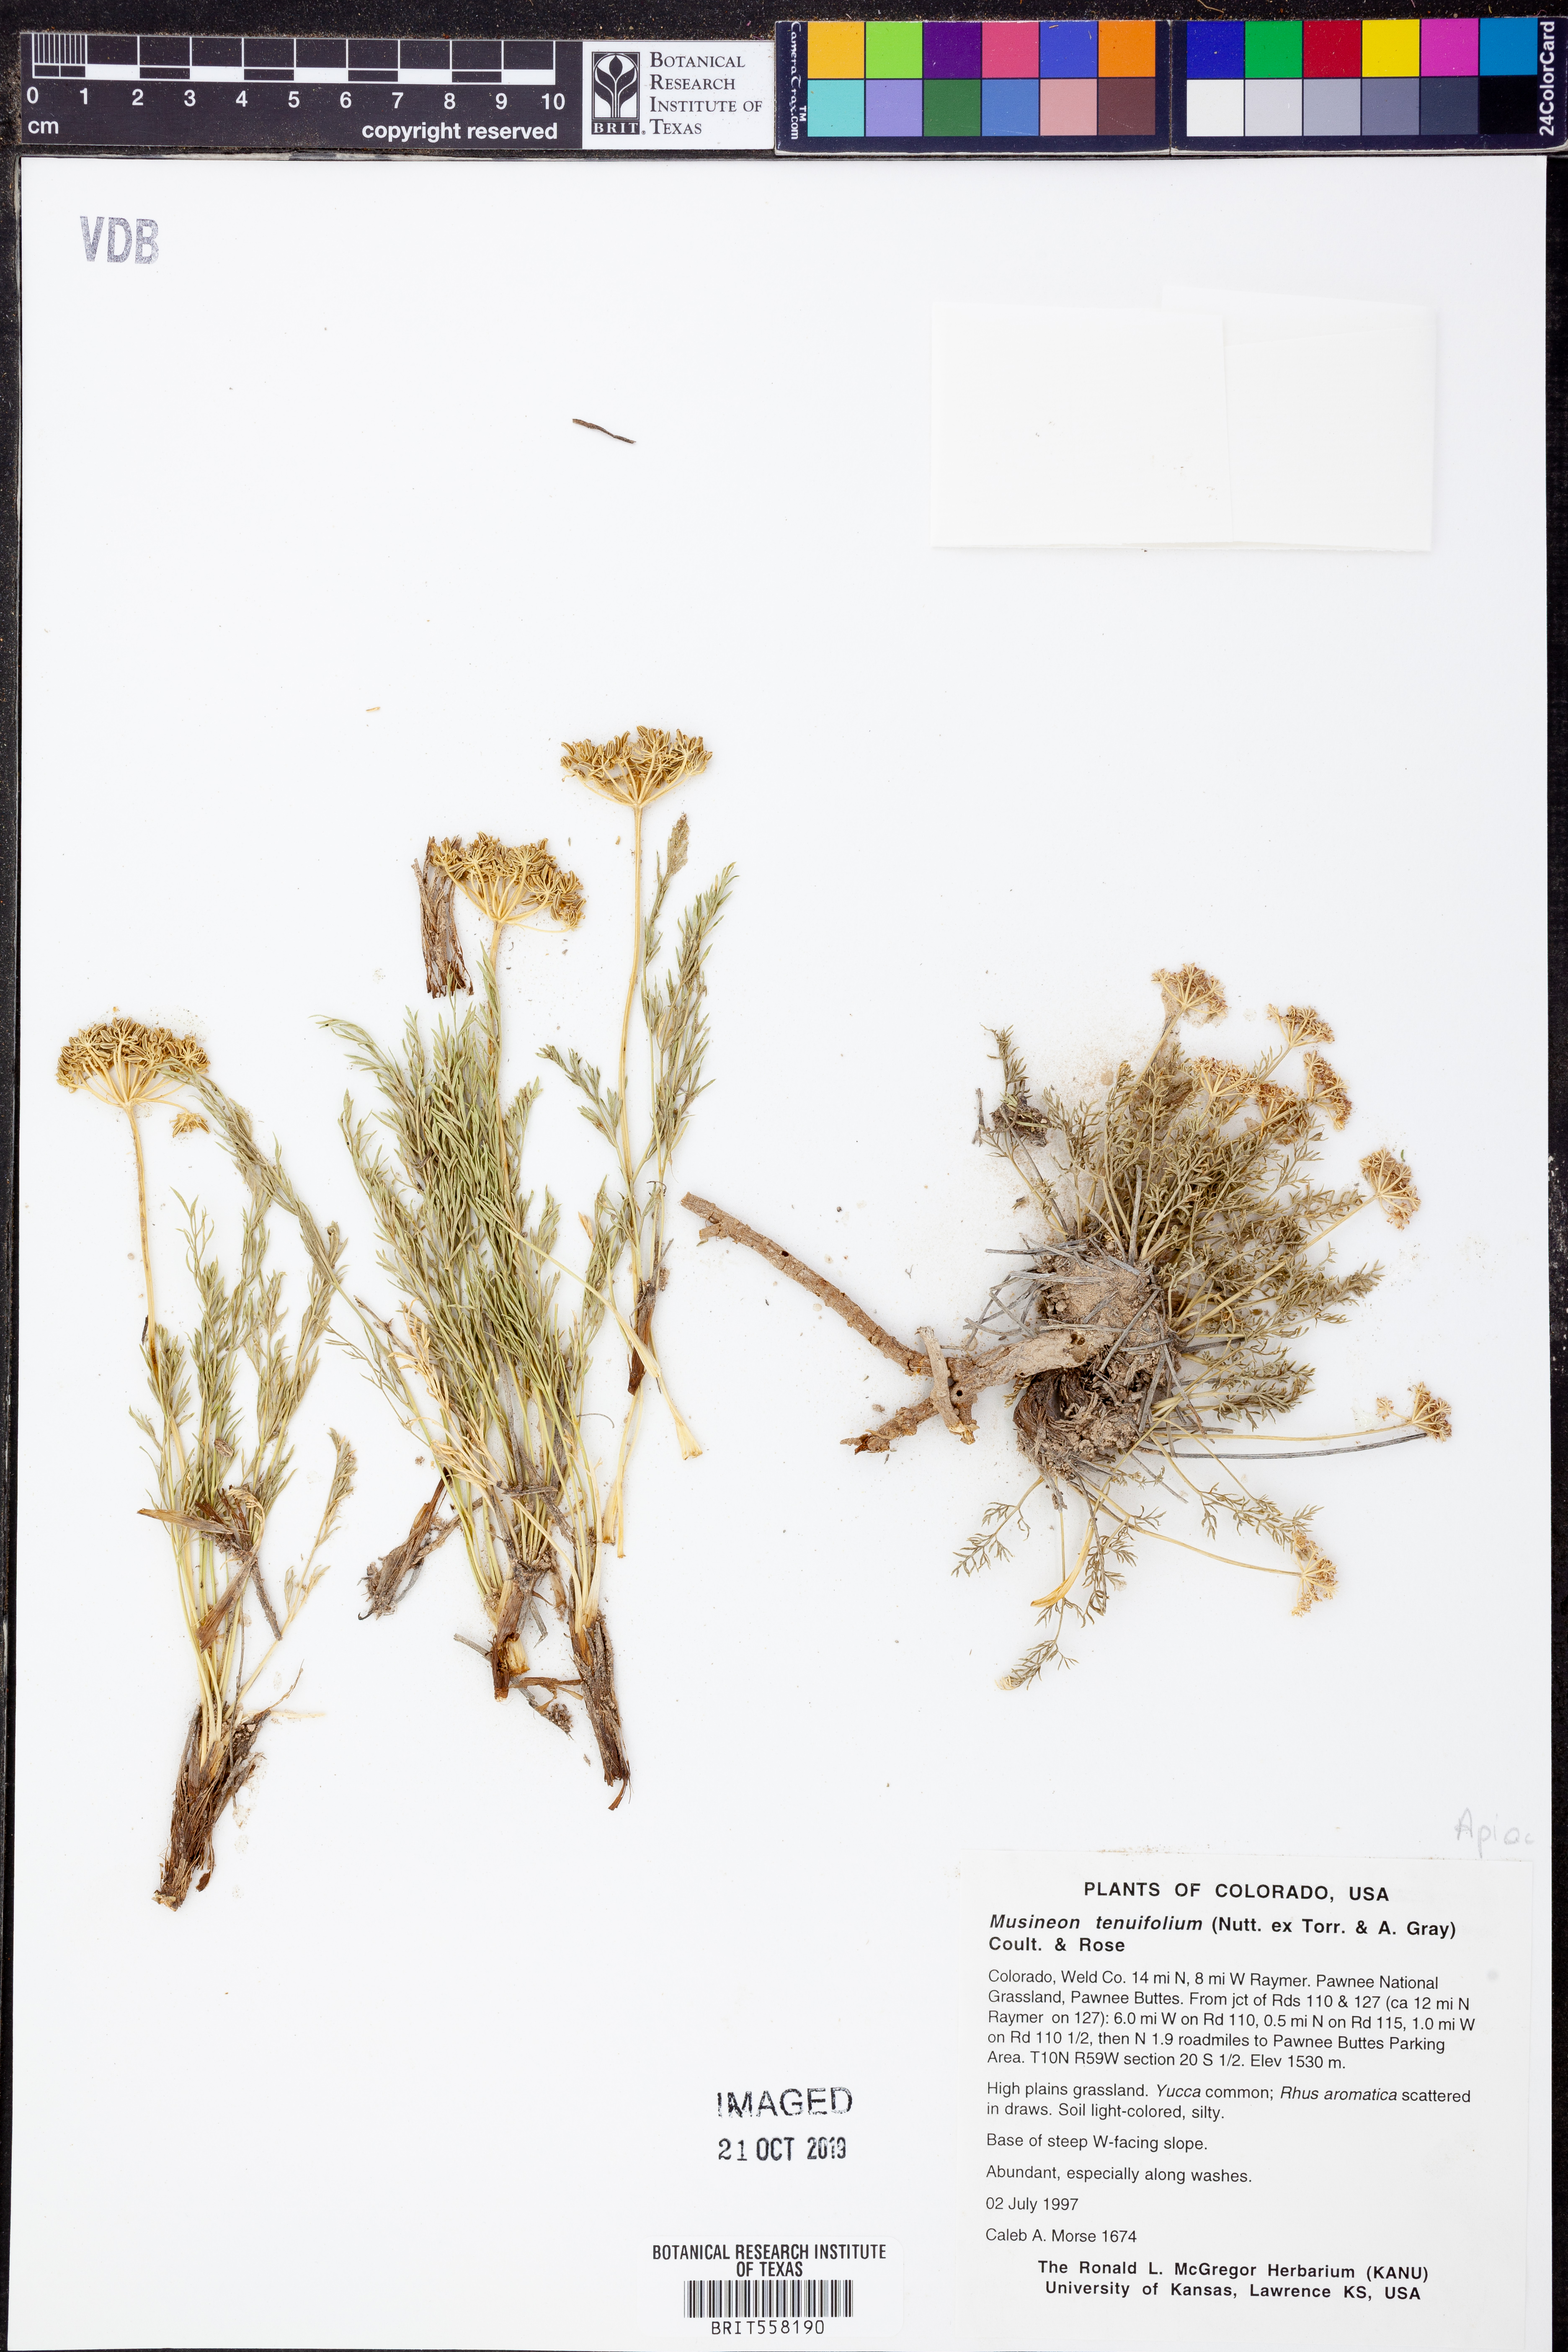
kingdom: Plantae
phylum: Tracheophyta
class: Magnoliopsida
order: Apiales
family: Apiaceae
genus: Musineon
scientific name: Musineon tenuifolium
